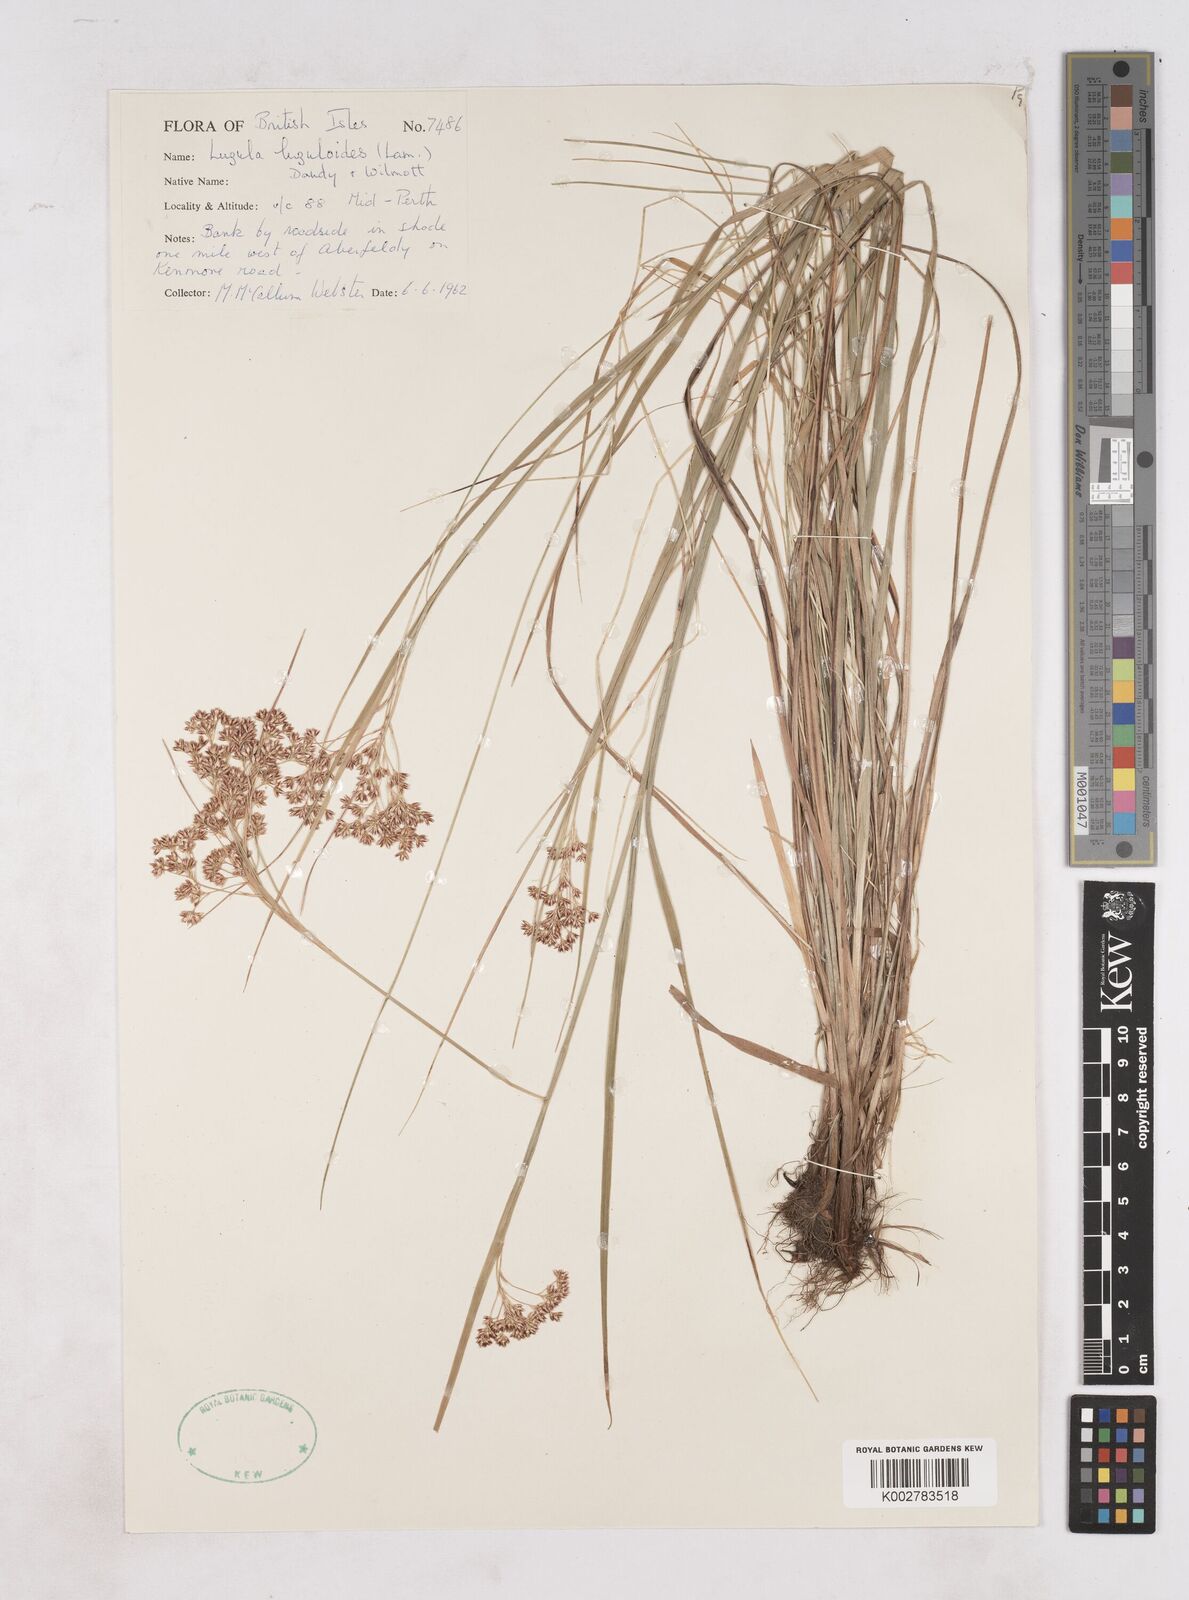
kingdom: Plantae
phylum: Tracheophyta
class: Liliopsida
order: Poales
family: Juncaceae
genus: Luzula
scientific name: Luzula luzuloides
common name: White wood-rush
